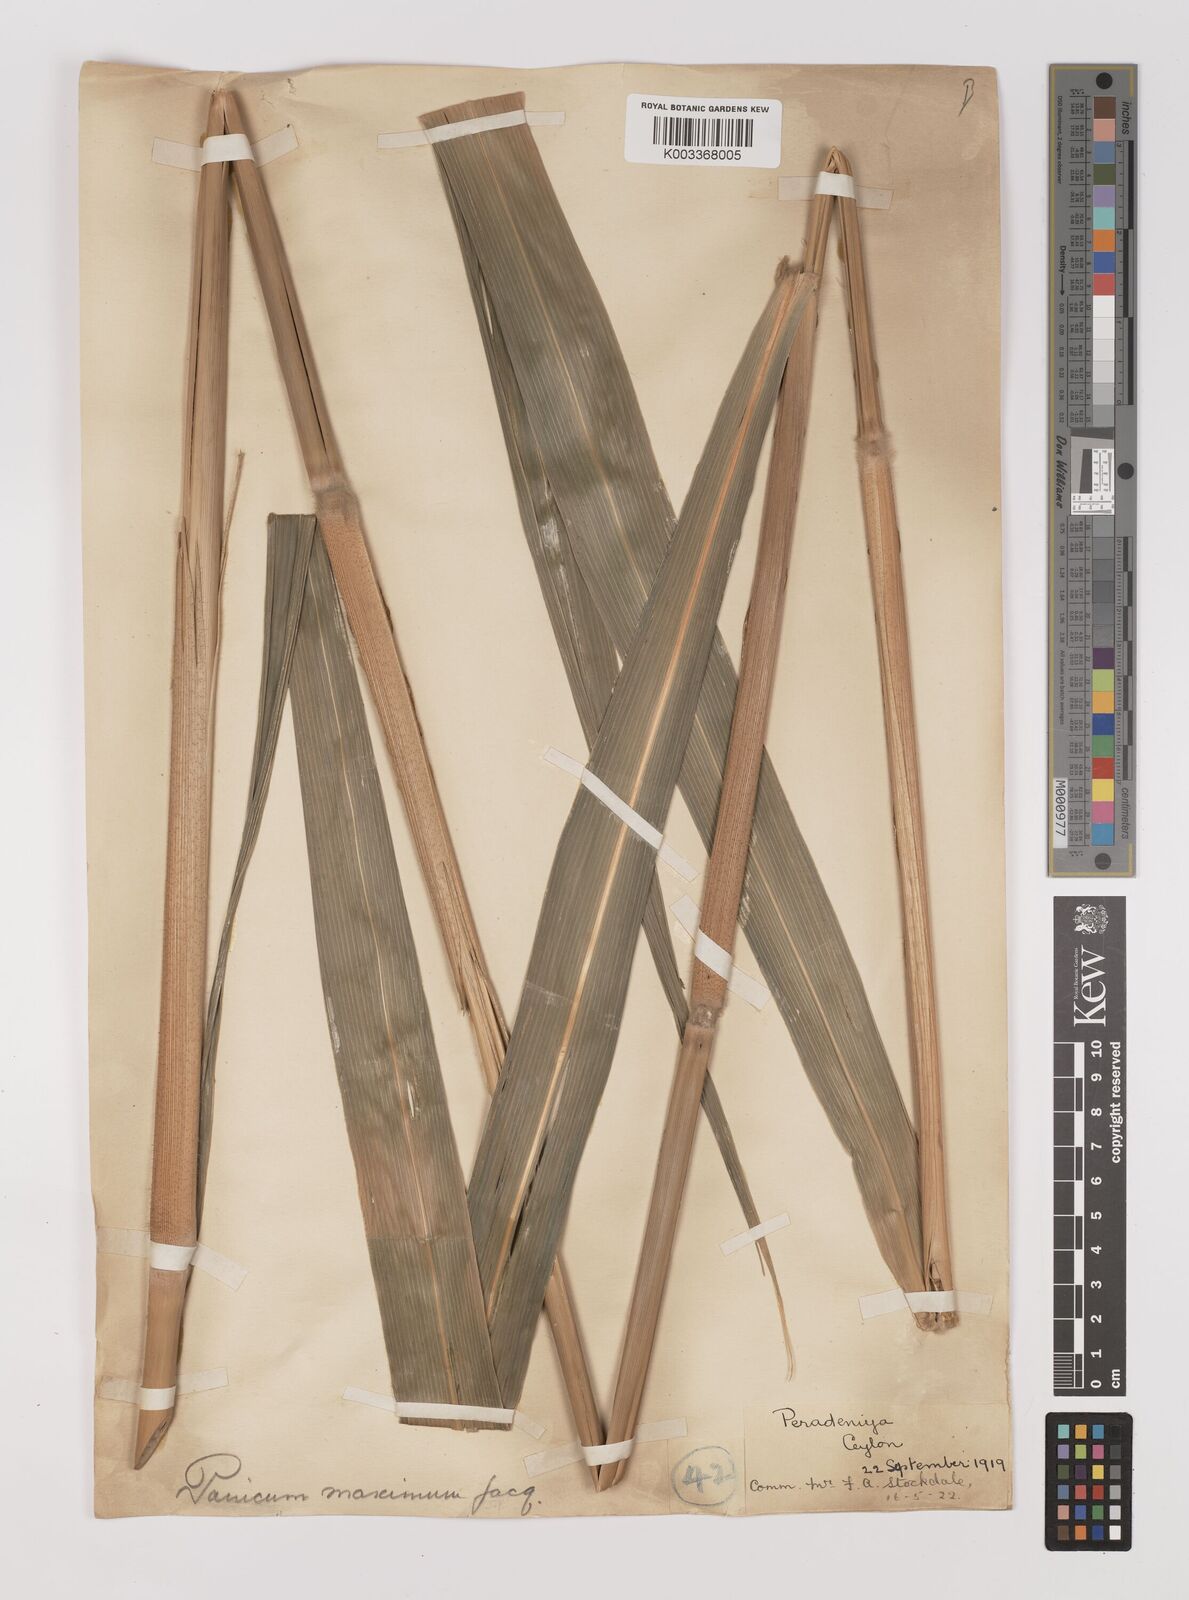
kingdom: Plantae
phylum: Tracheophyta
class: Liliopsida
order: Poales
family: Poaceae
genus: Megathyrsus
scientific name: Megathyrsus maximus
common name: Guineagrass
